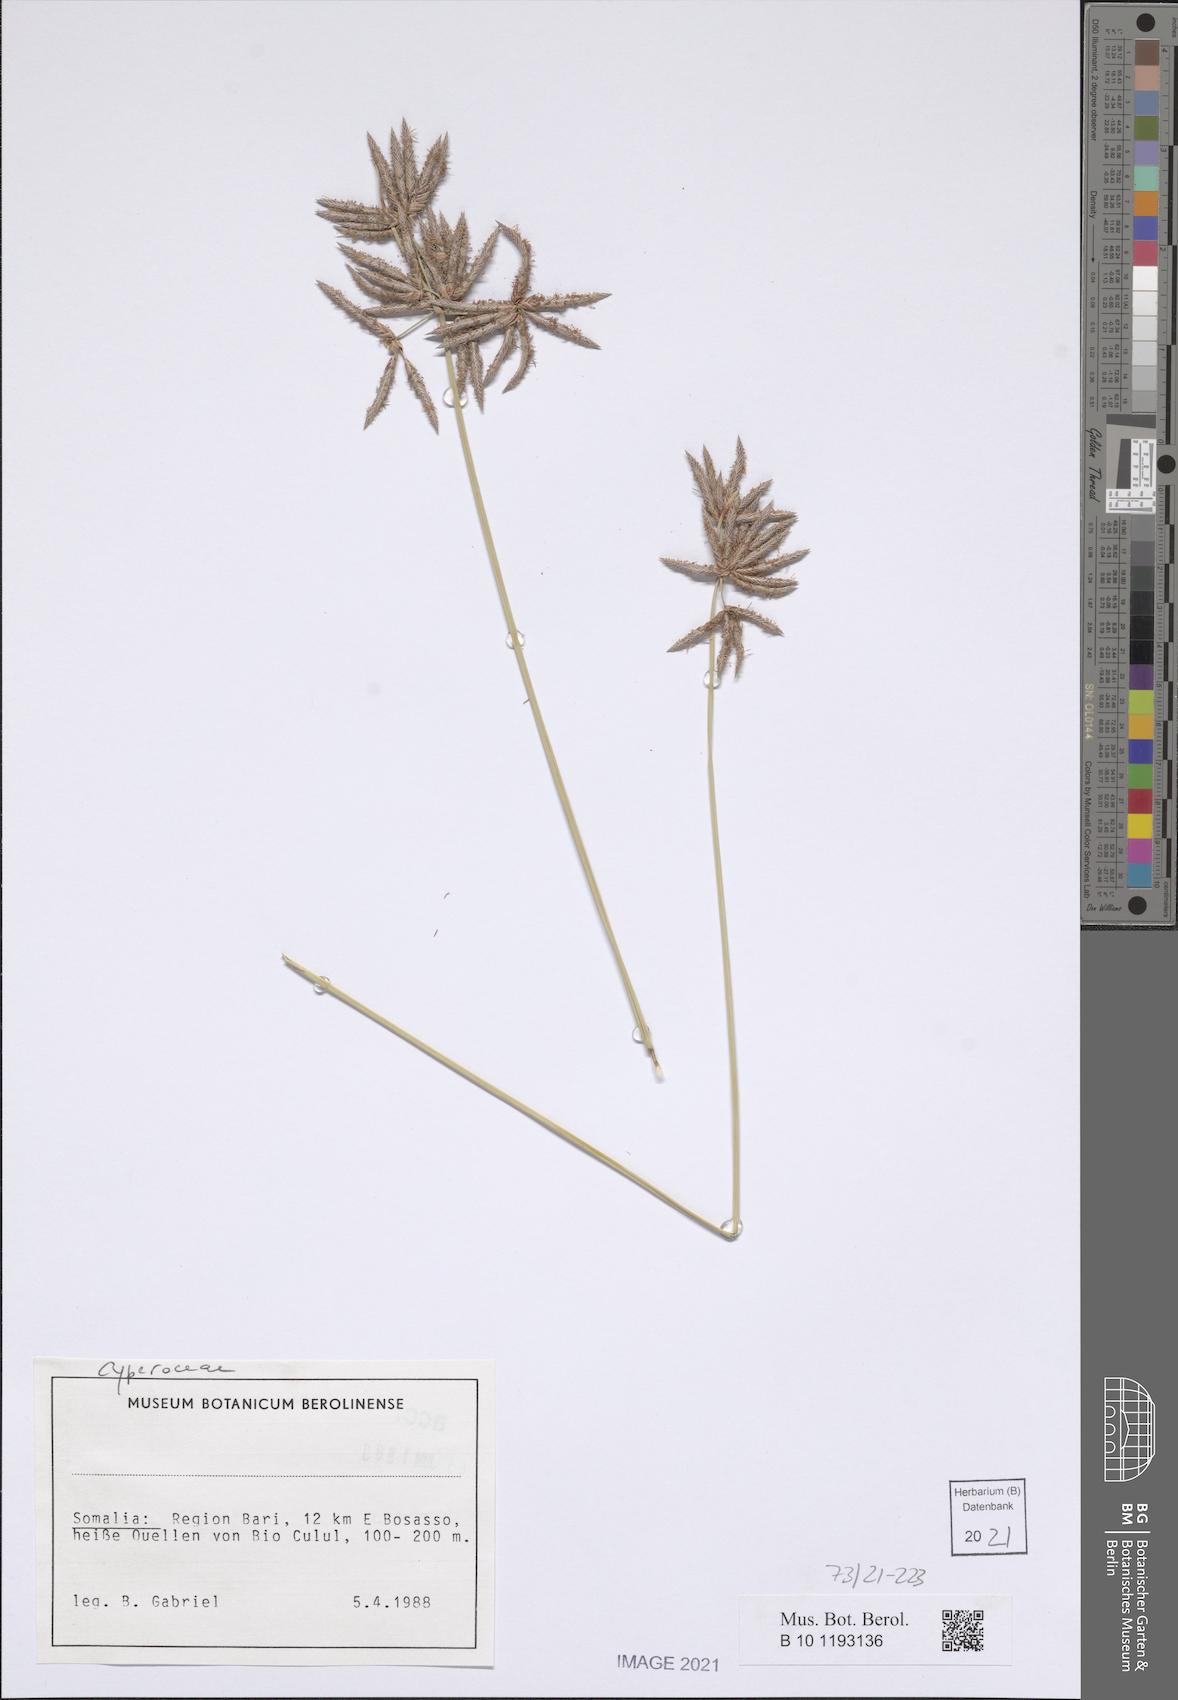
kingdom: Plantae
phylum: Tracheophyta
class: Liliopsida
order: Poales
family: Cyperaceae
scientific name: Cyperaceae
